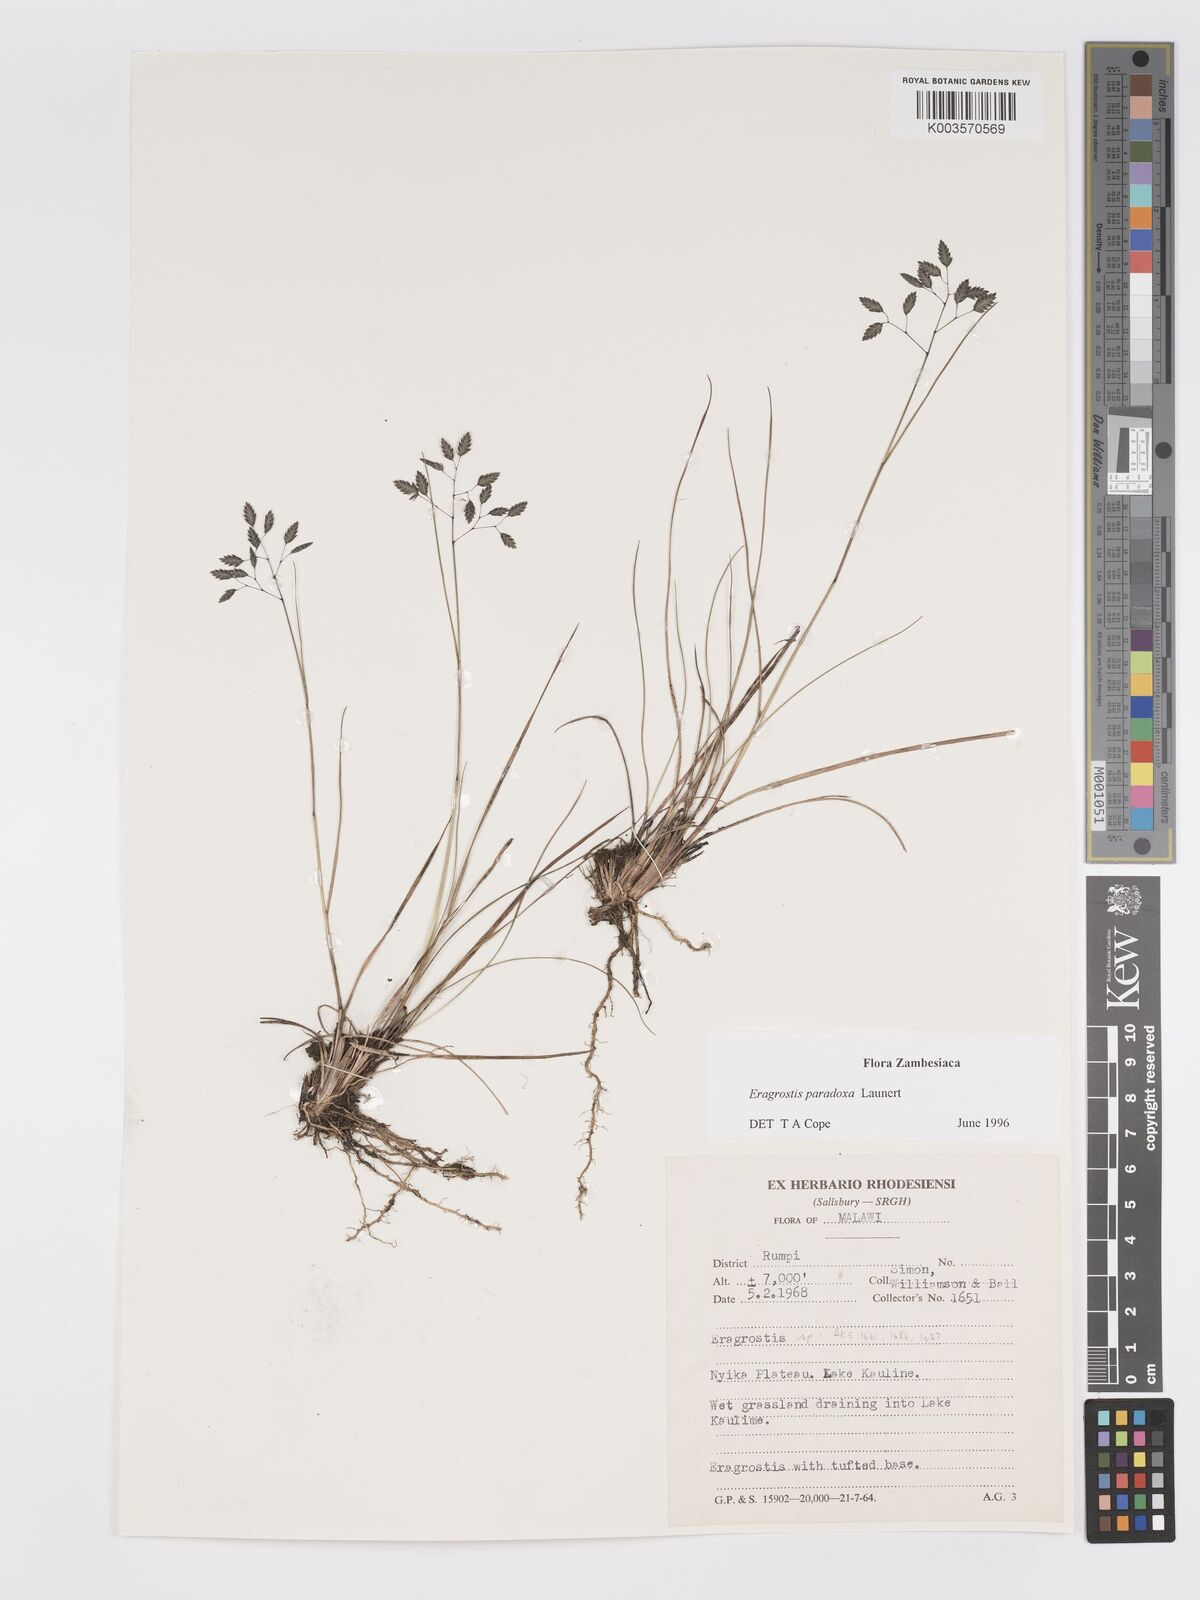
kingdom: Plantae
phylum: Tracheophyta
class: Liliopsida
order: Poales
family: Poaceae
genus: Eragrostis
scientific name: Eragrostis paradoxa
